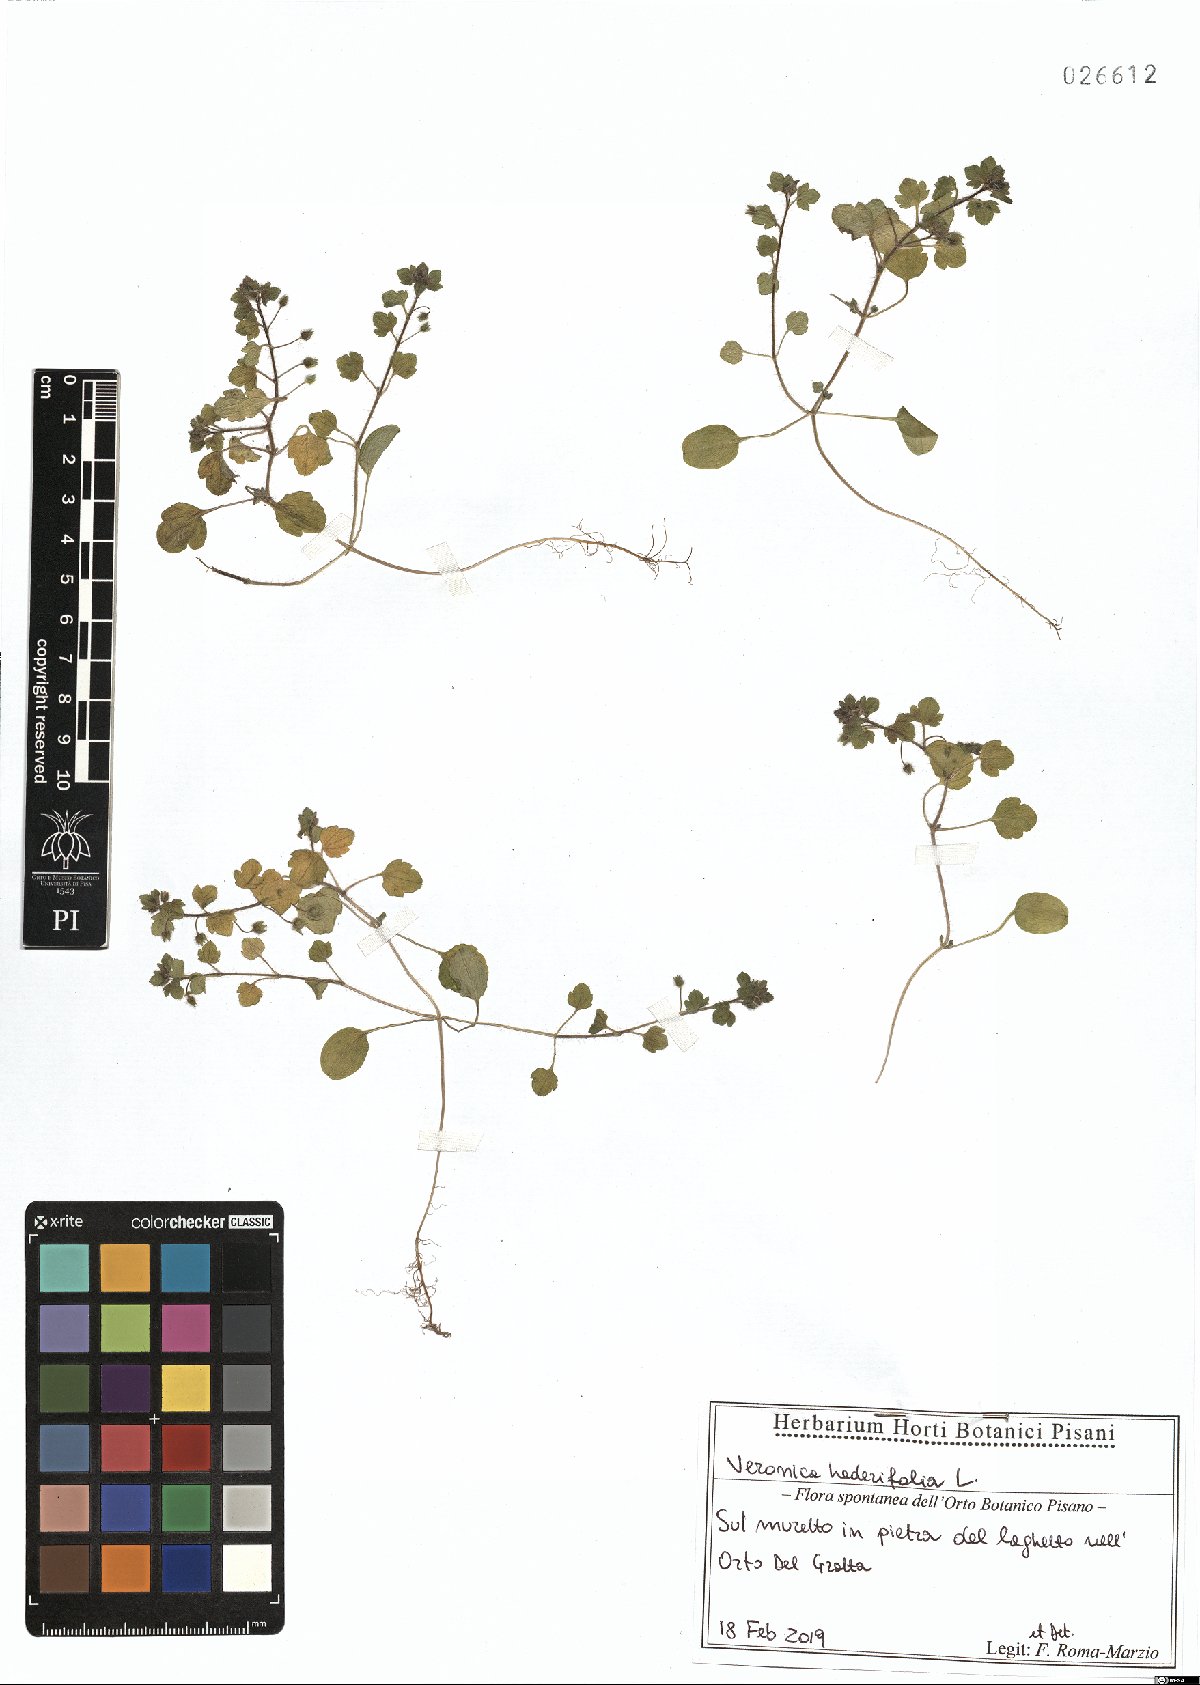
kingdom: Plantae
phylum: Tracheophyta
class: Magnoliopsida
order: Lamiales
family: Plantaginaceae
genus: Veronica
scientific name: Veronica hederifolia
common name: Ivy-leaved speedwell
